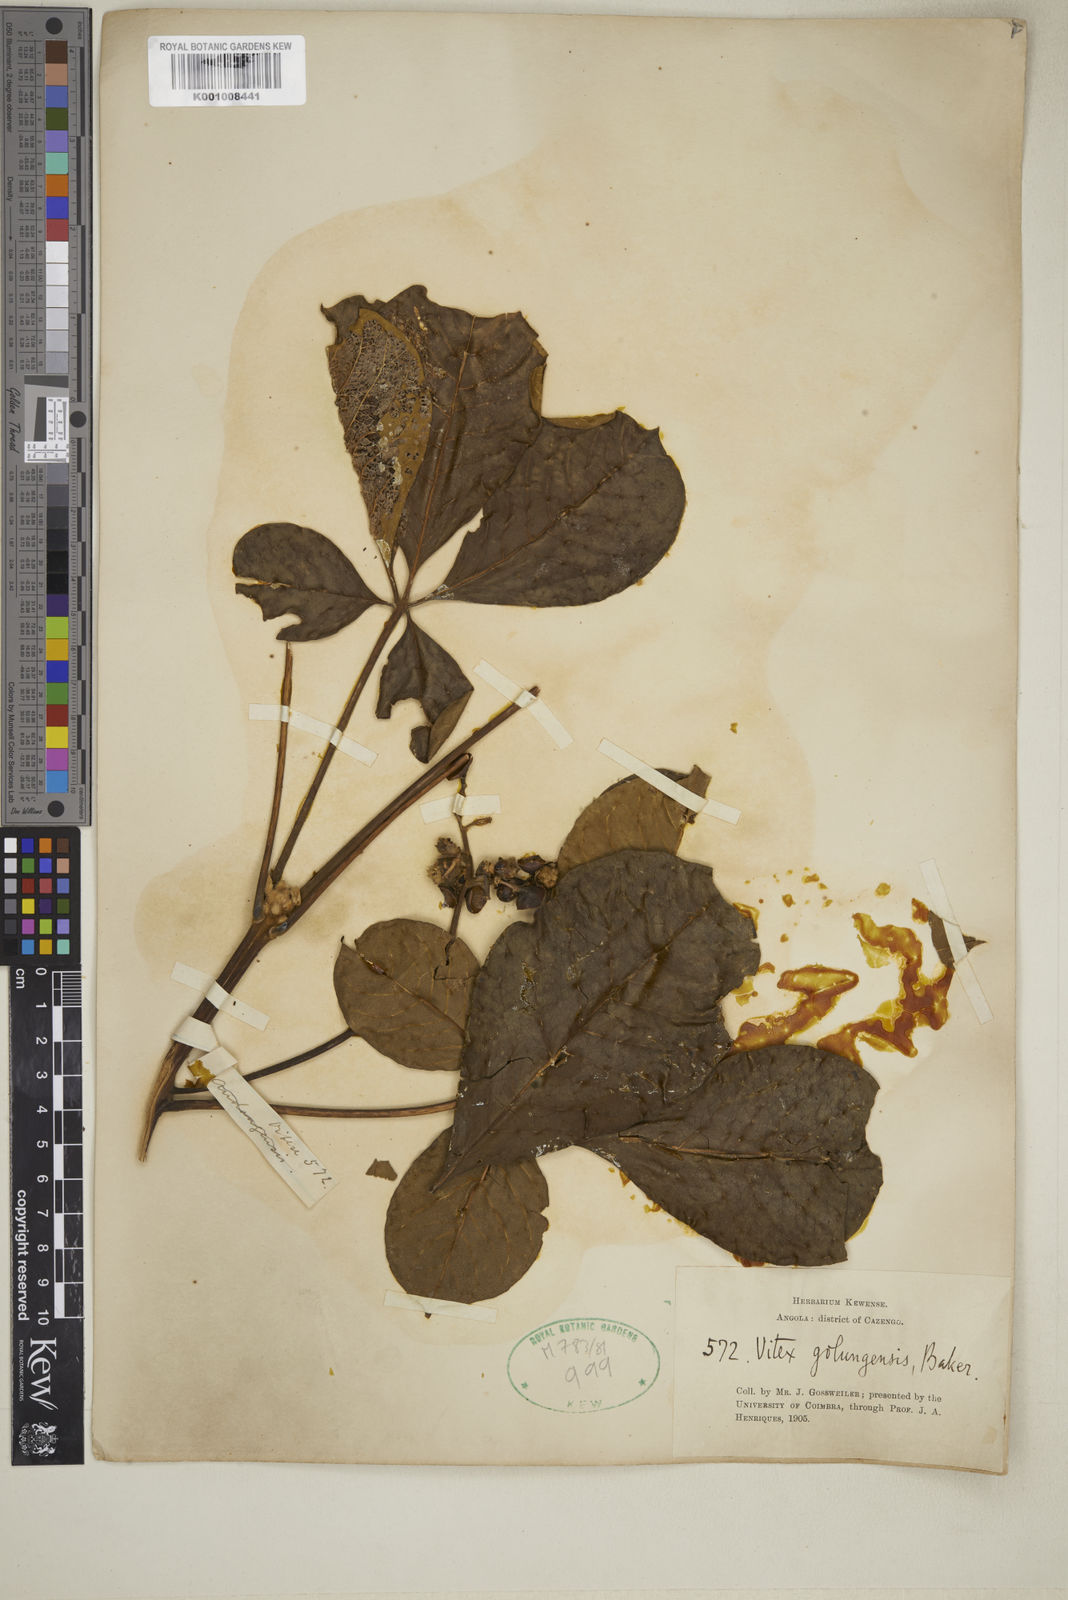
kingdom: Plantae
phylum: Tracheophyta
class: Magnoliopsida
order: Lamiales
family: Lamiaceae
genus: Vitex
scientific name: Vitex madiensis
